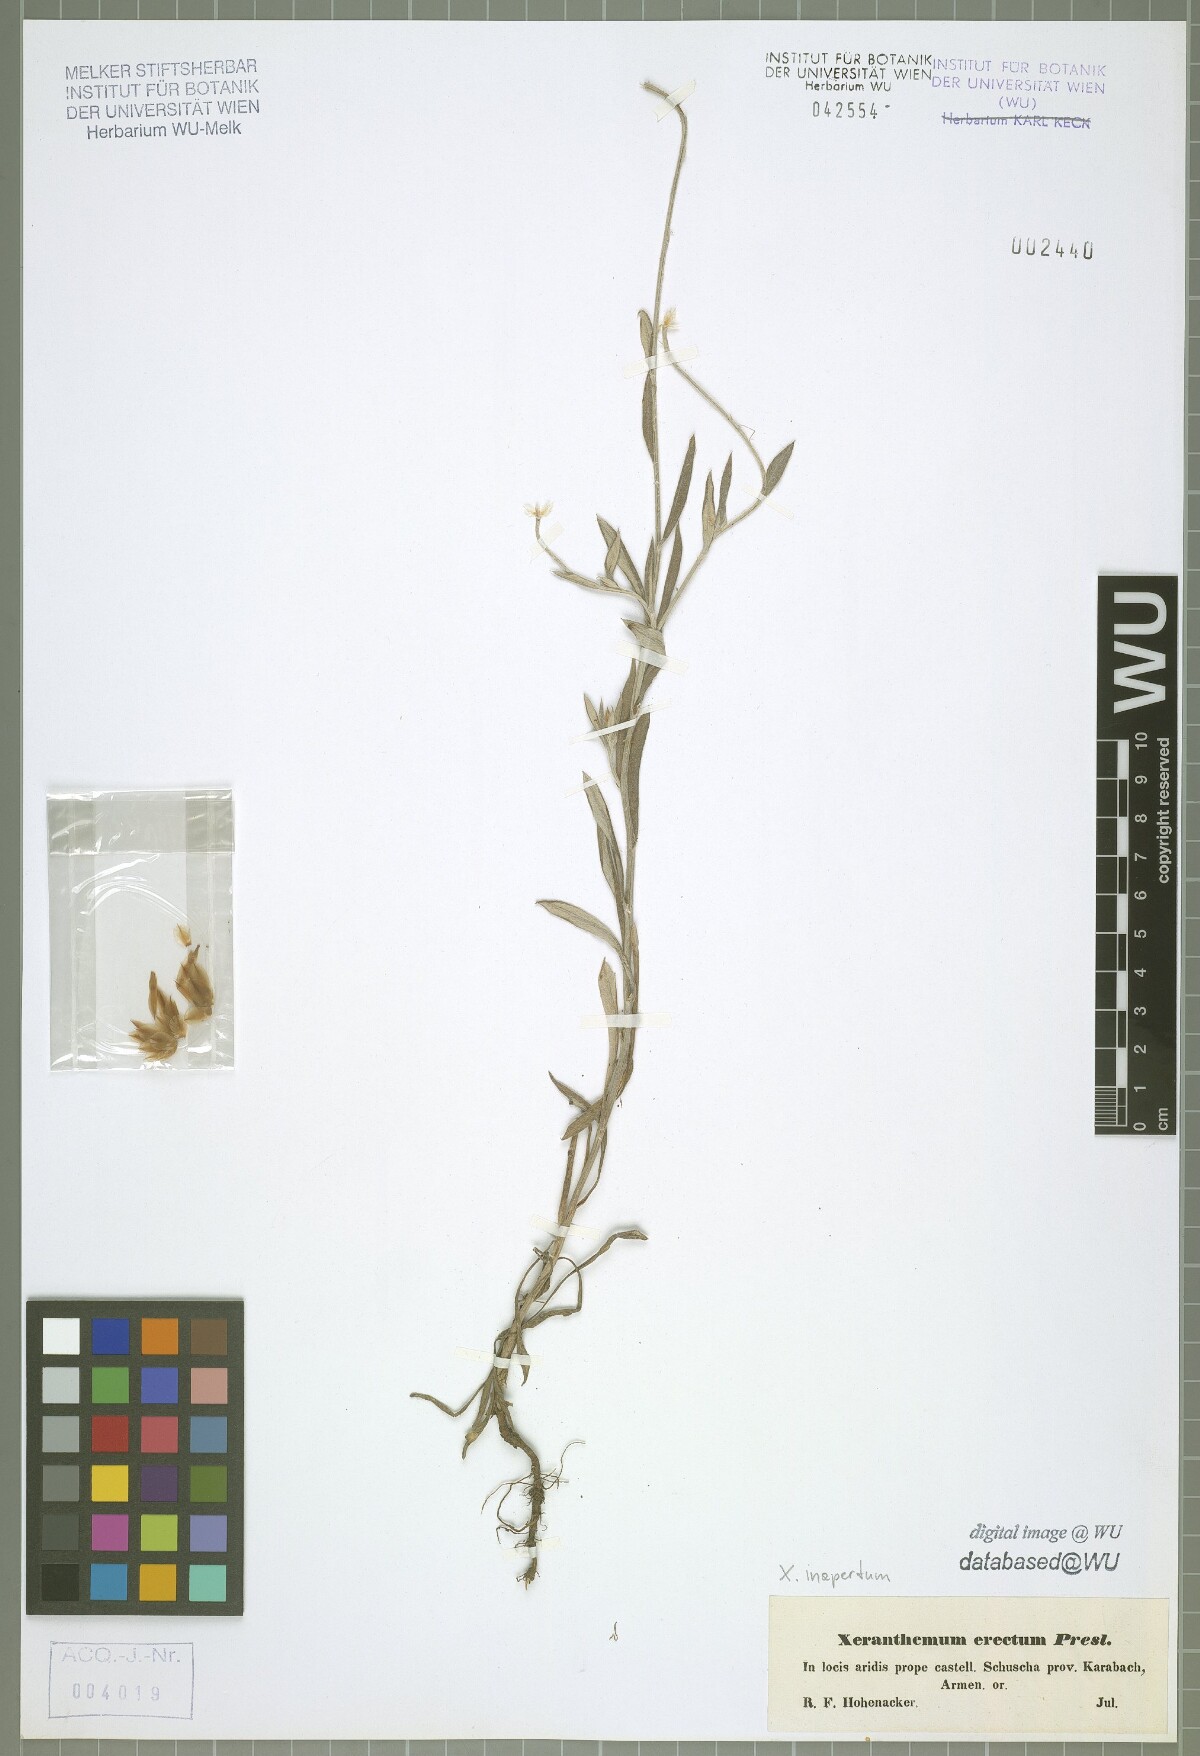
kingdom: Plantae
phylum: Tracheophyta
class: Magnoliopsida
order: Asterales
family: Asteraceae
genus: Xeranthemum
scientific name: Xeranthemum inapertum
